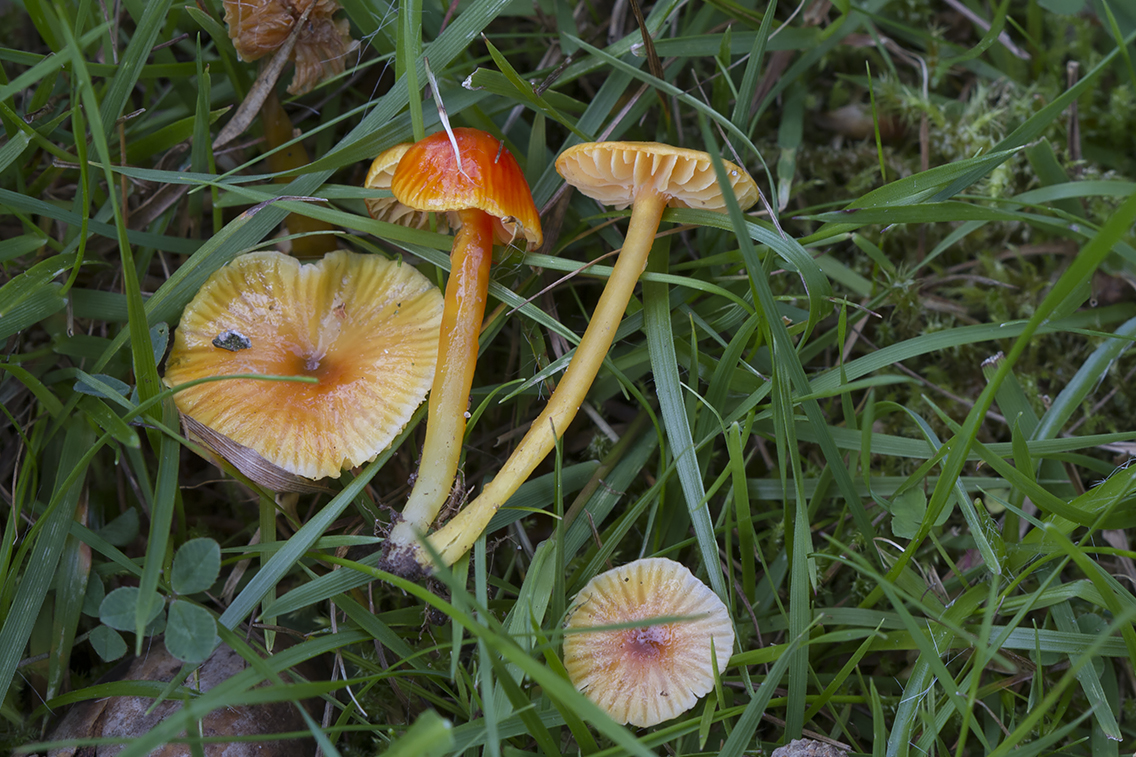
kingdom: Fungi
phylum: Basidiomycota
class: Agaricomycetes
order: Agaricales
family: Hygrophoraceae
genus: Hygrocybe
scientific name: Hygrocybe glutinipes
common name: slimstokket vokshat
